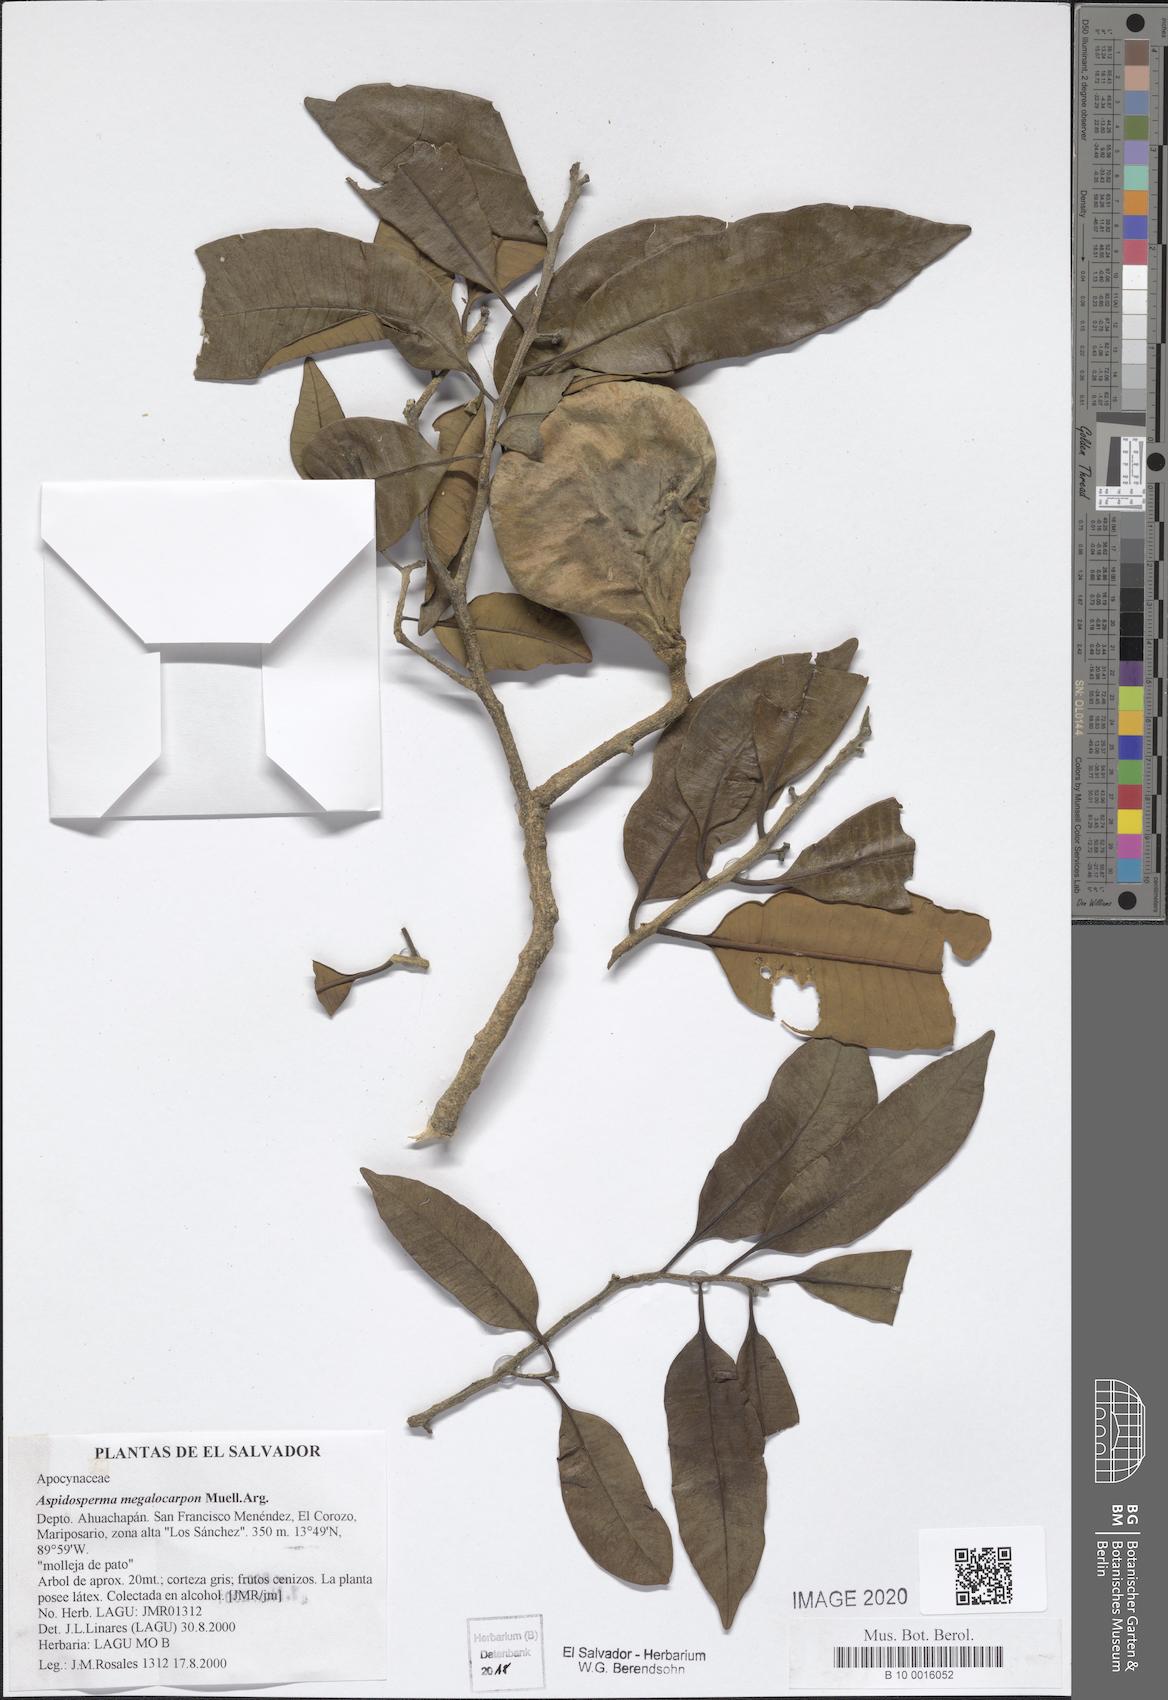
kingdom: Plantae
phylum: Tracheophyta
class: Magnoliopsida
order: Gentianales
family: Apocynaceae
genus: Aspidosperma
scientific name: Aspidosperma megalocarpon
